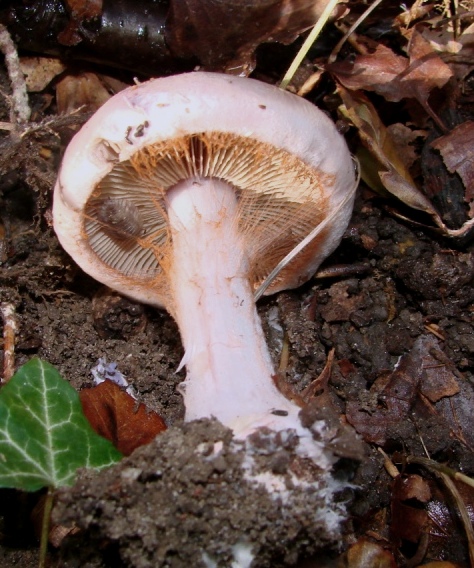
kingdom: Fungi
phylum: Basidiomycota
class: Agaricomycetes
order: Agaricales
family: Cortinariaceae
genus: Calonarius
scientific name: Calonarius rufo-olivaceus
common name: firefarvet slørhat
